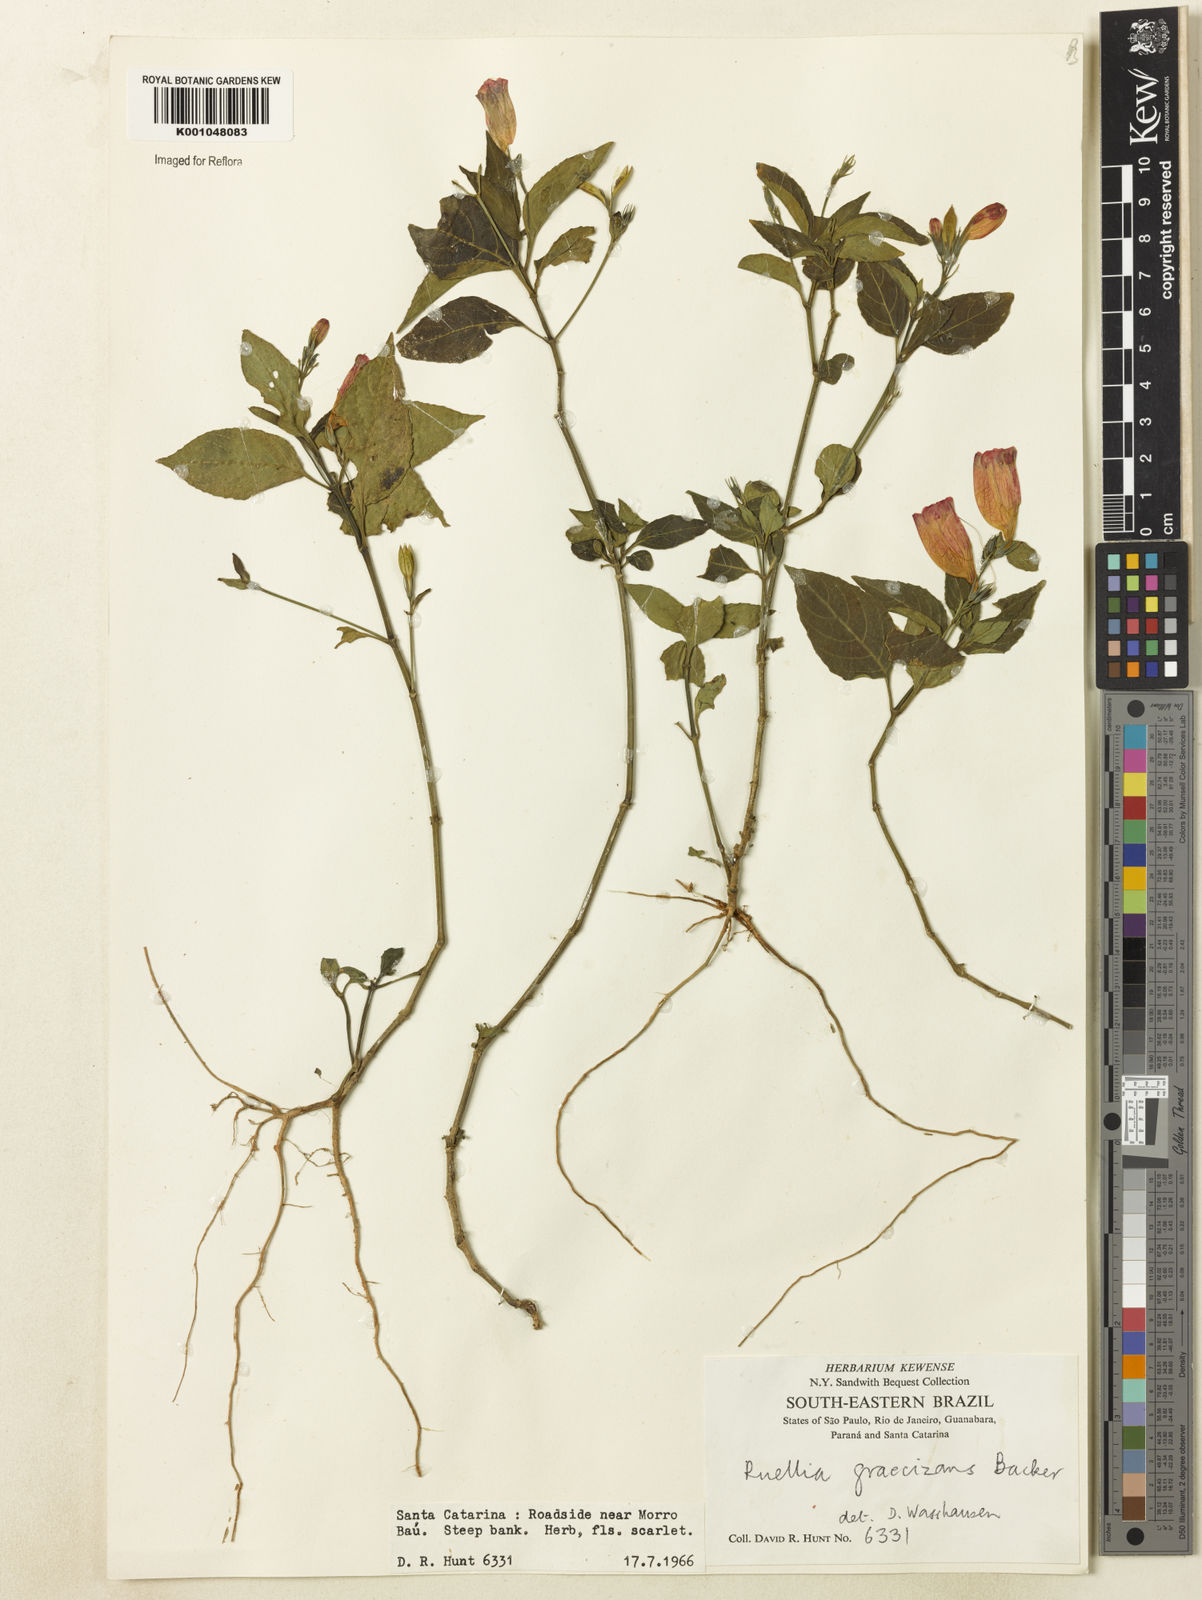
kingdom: Plantae
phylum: Tracheophyta
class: Magnoliopsida
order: Lamiales
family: Acanthaceae
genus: Ruellia
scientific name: Ruellia brevifolia
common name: Tropical wild petunia
